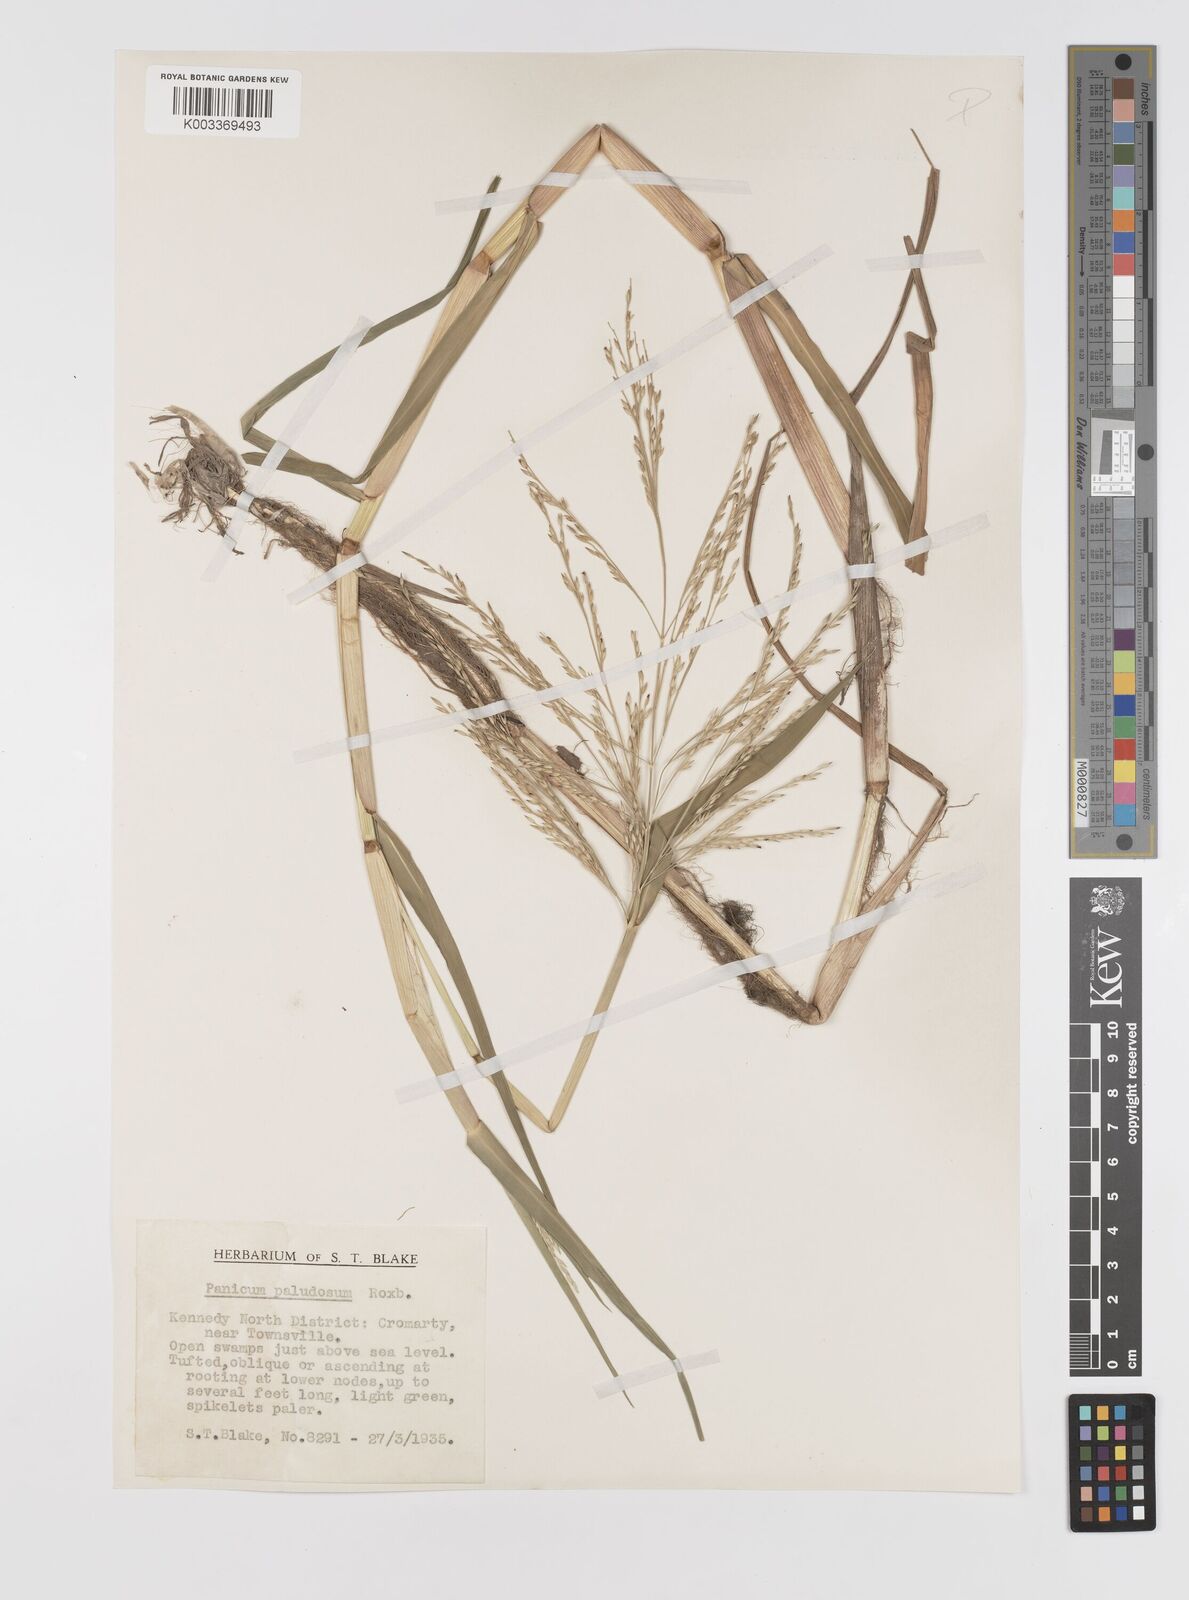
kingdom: Plantae
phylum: Tracheophyta
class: Liliopsida
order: Poales
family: Poaceae
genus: Louisiella
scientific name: Louisiella paludosa
